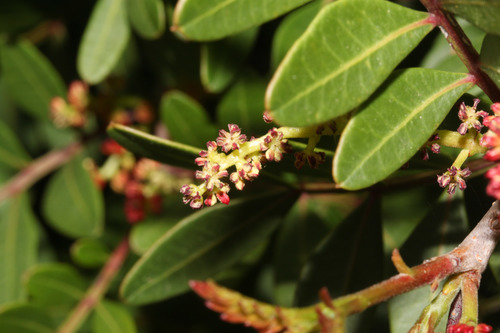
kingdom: Plantae
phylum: Tracheophyta
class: Magnoliopsida
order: Sapindales
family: Anacardiaceae
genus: Pistacia
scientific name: Pistacia lentiscus
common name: Lentisk
